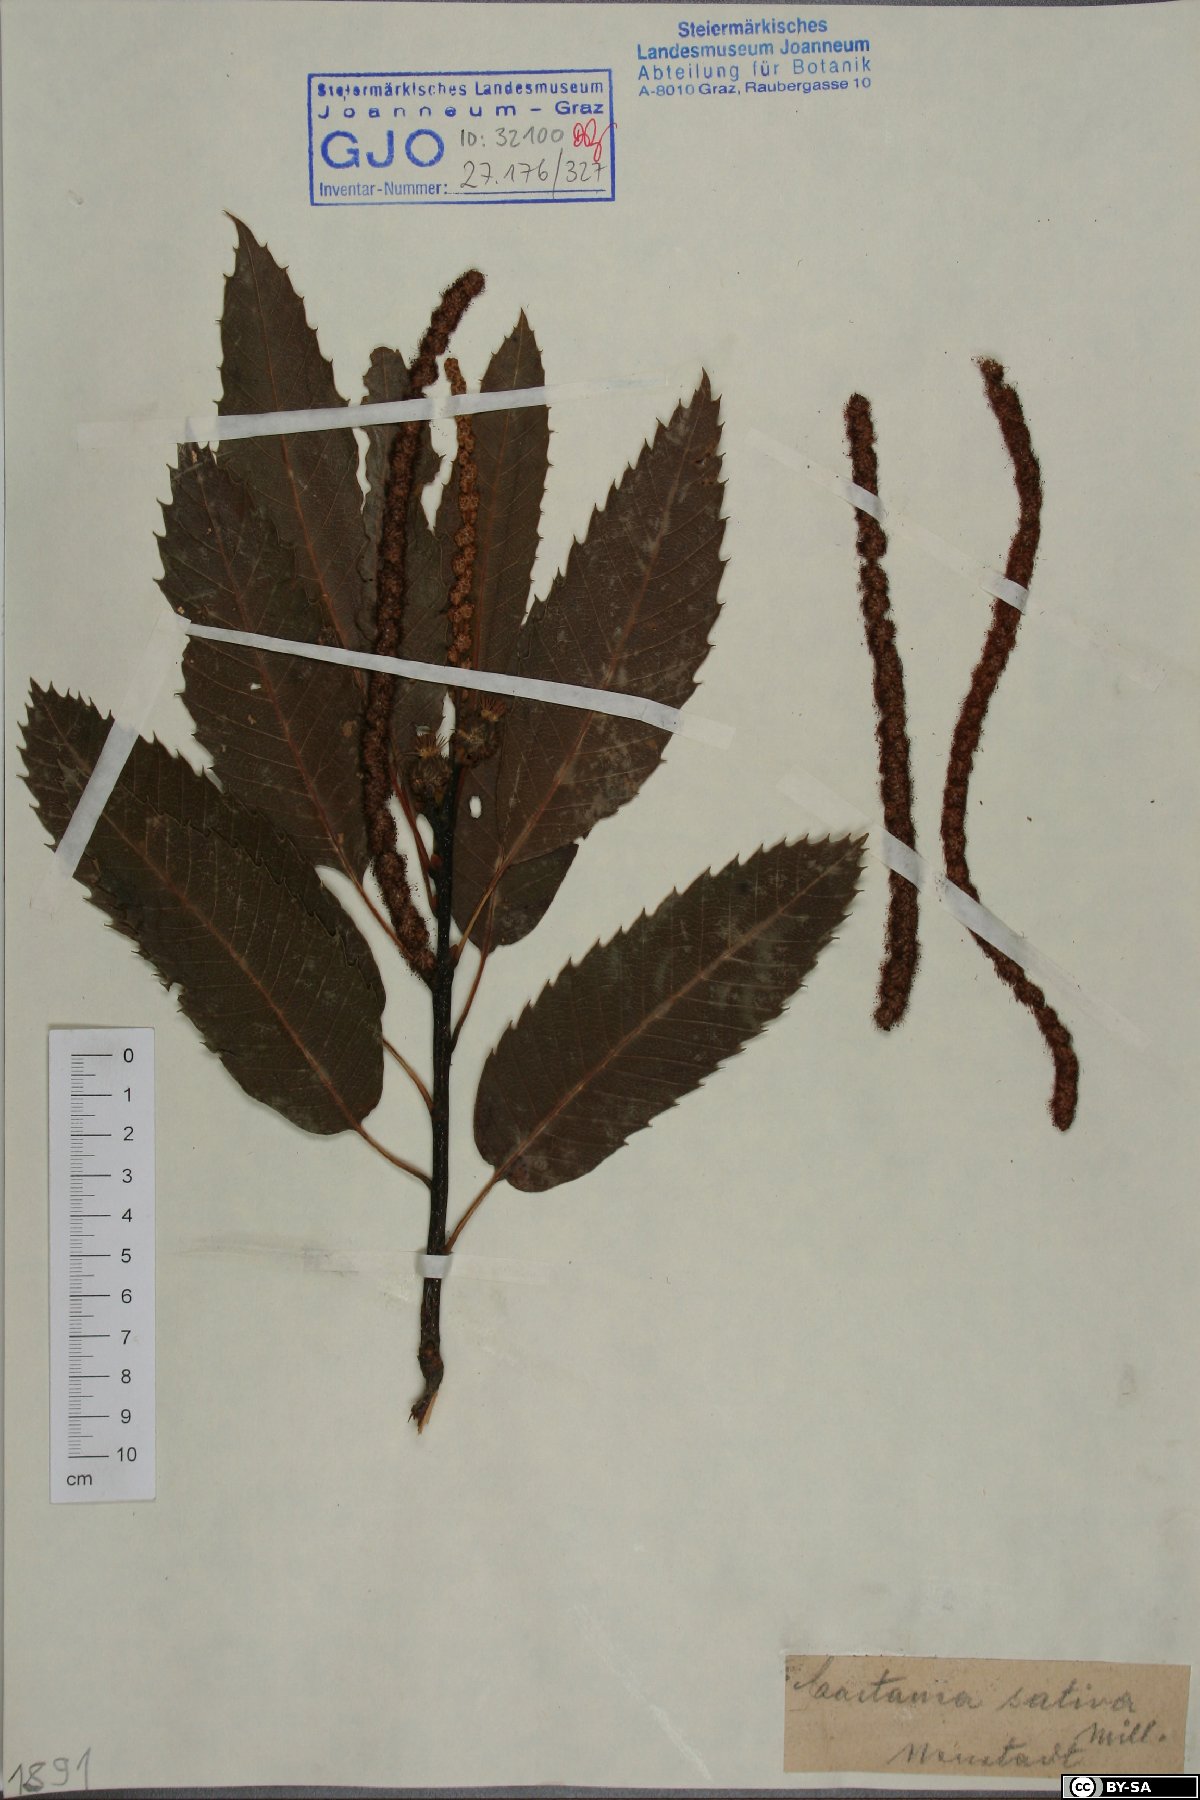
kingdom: Plantae
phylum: Tracheophyta
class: Magnoliopsida
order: Fagales
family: Fagaceae
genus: Castanea
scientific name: Castanea sativa
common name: Sweet chestnut
